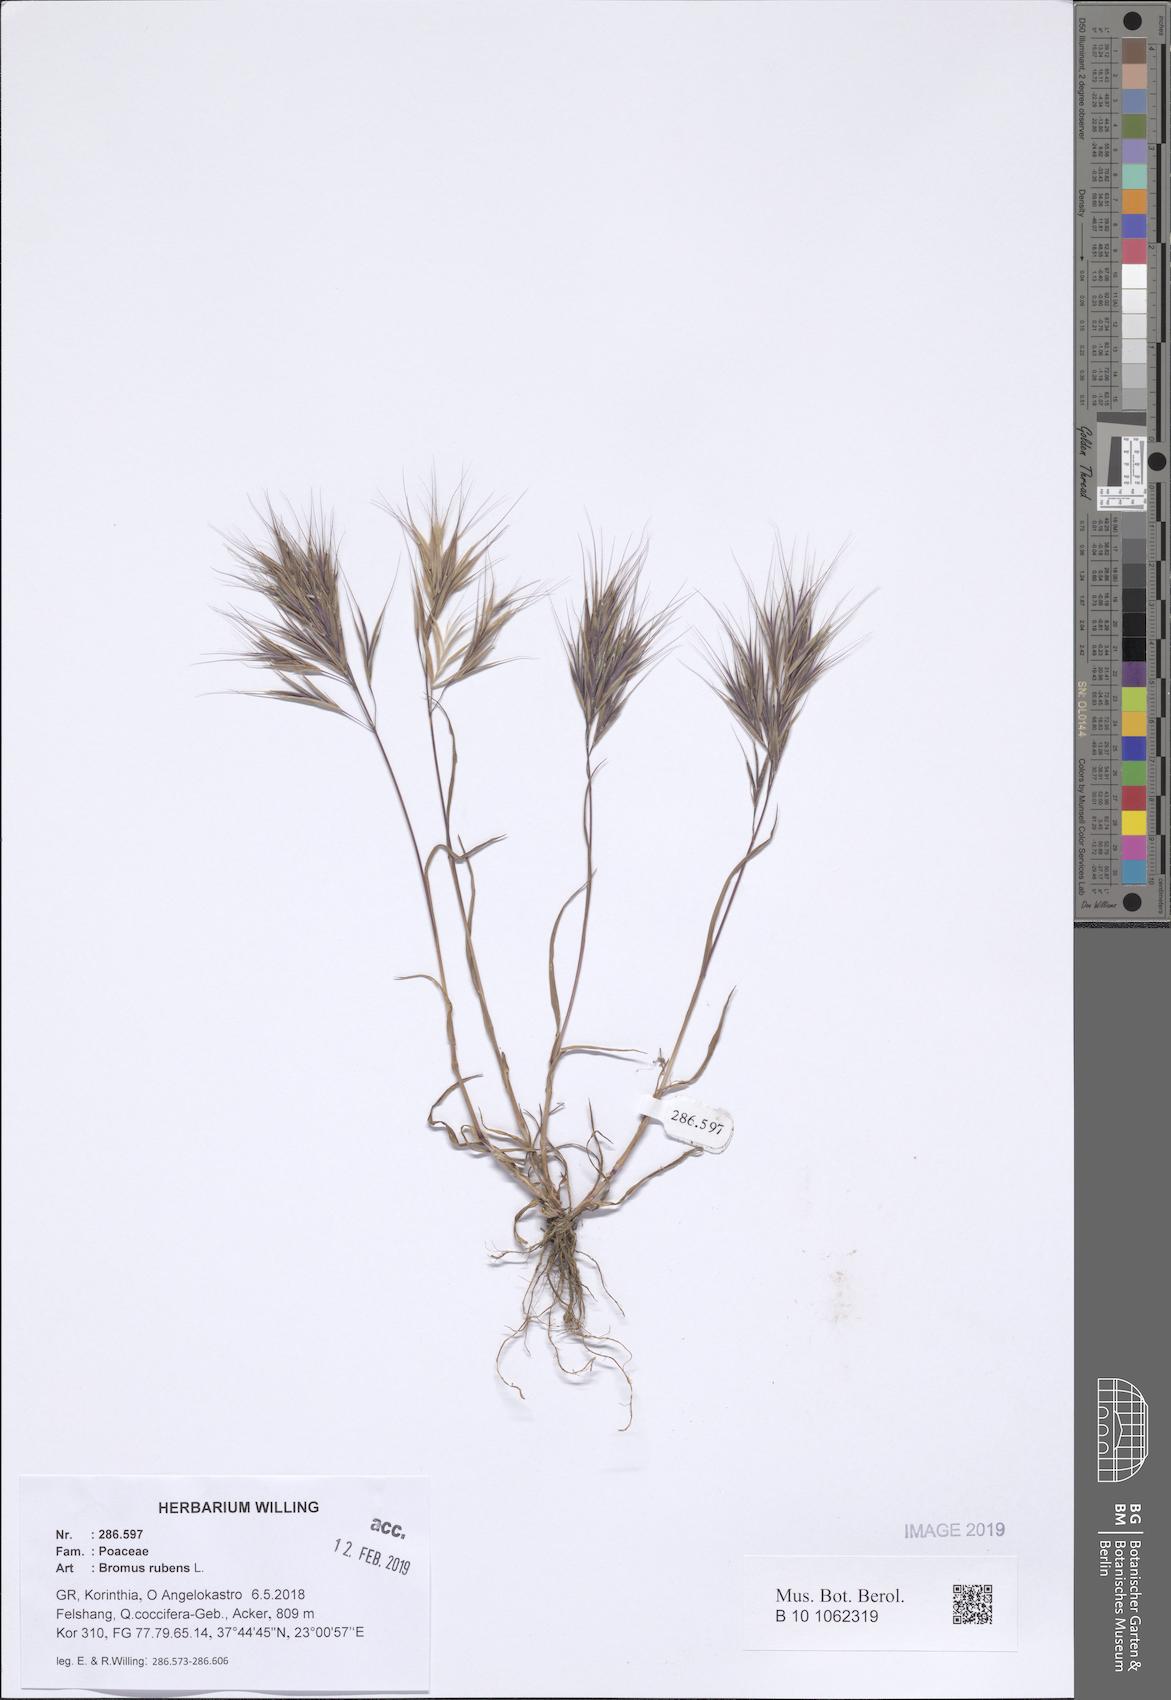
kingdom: Plantae
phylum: Tracheophyta
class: Liliopsida
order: Poales
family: Poaceae
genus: Bromus
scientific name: Bromus rubens
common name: Red brome
